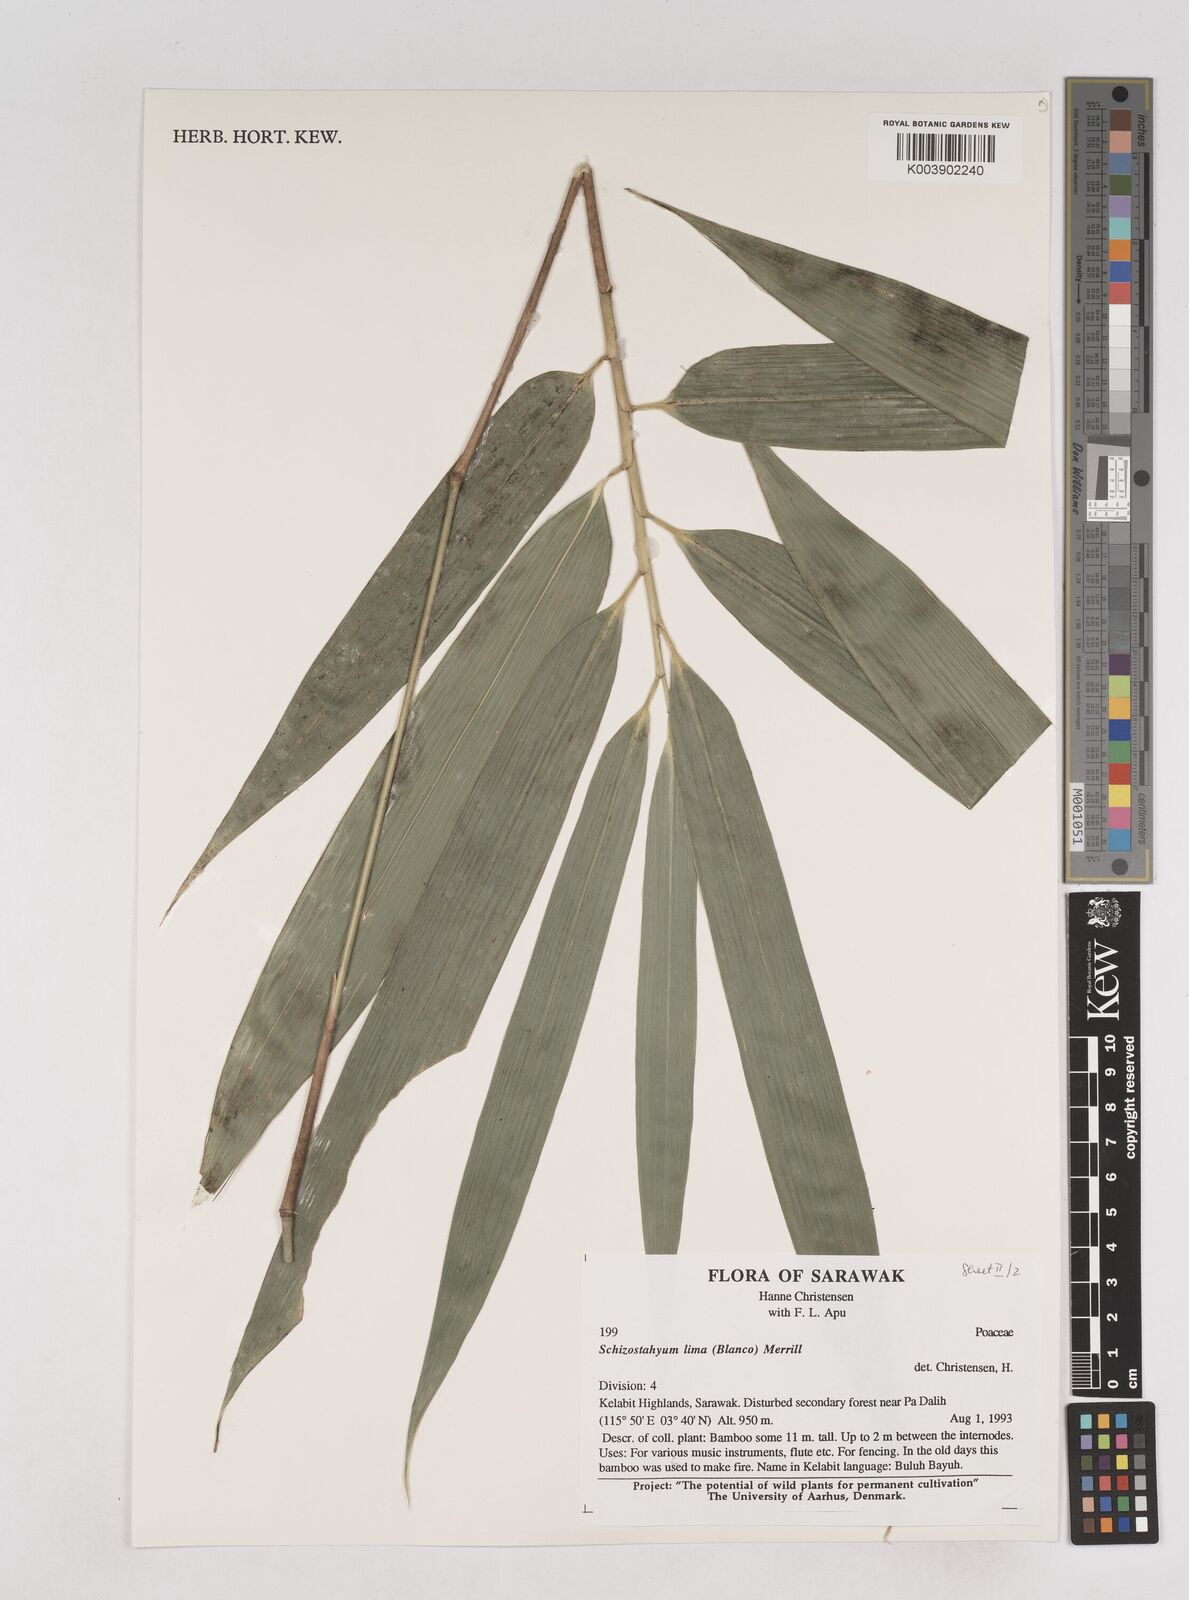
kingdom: Plantae
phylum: Tracheophyta
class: Liliopsida
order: Poales
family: Poaceae
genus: Schizostachyum
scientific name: Schizostachyum lima
